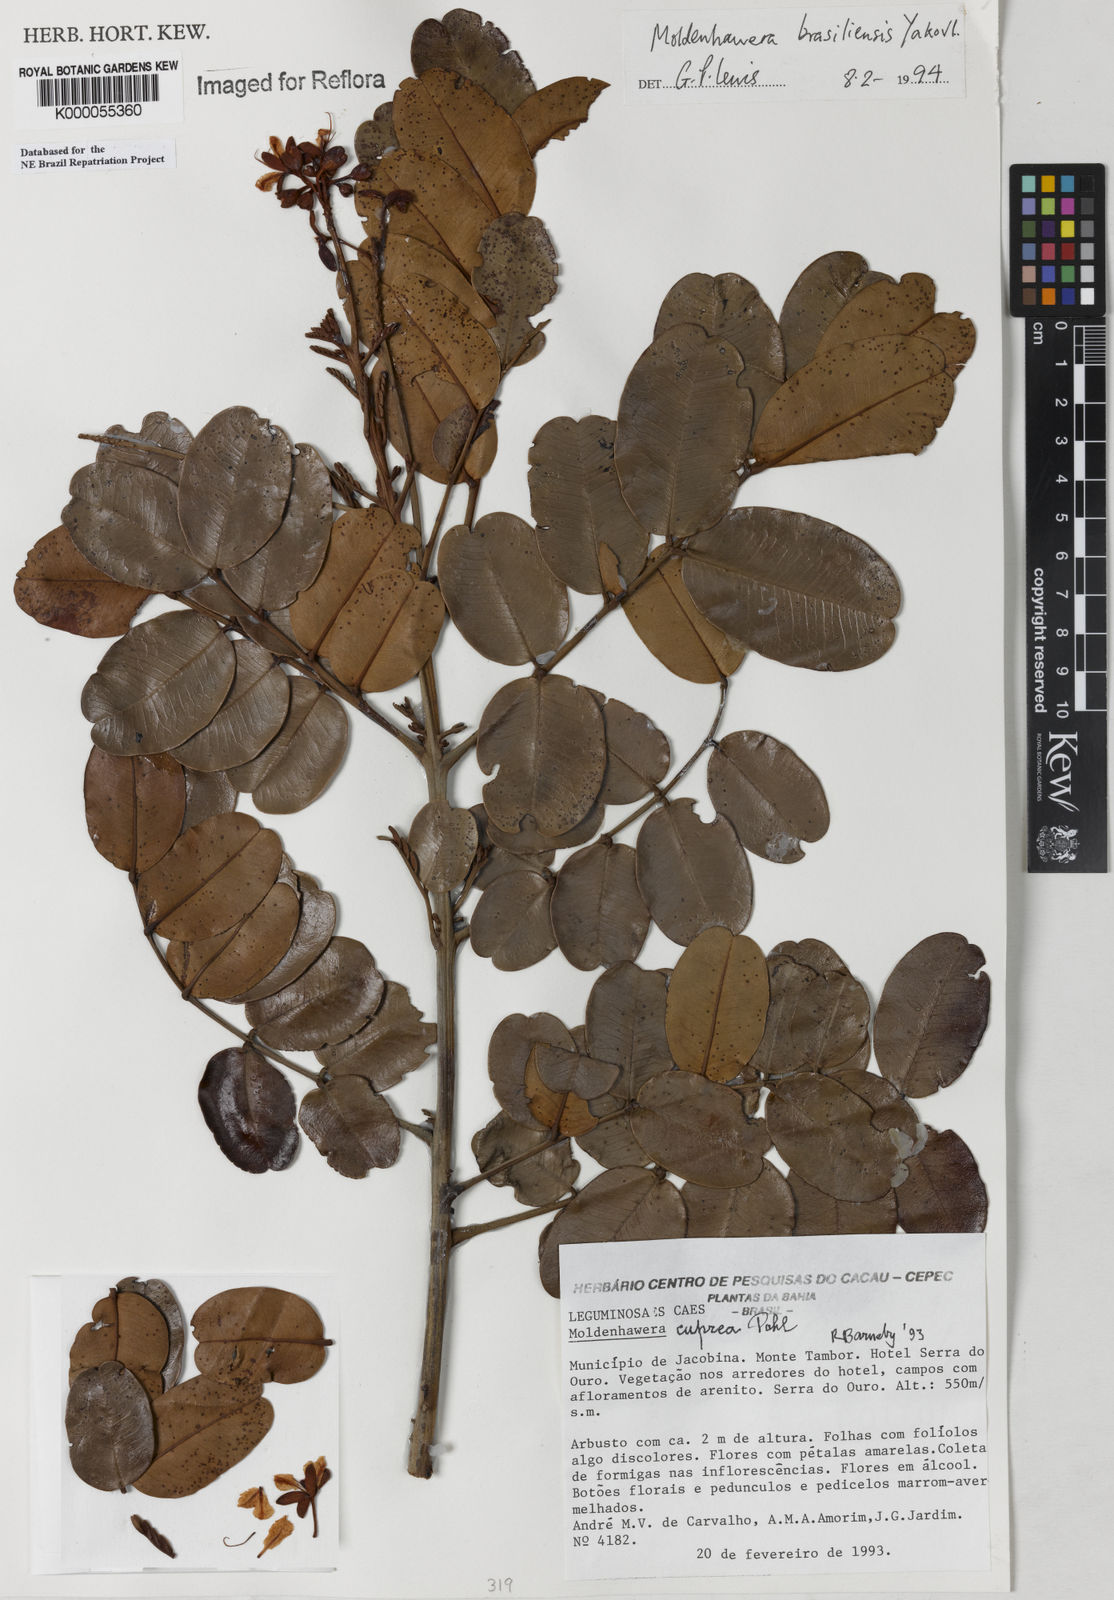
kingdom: Plantae
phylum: Tracheophyta
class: Magnoliopsida
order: Fabales
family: Fabaceae
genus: Moldenhawera
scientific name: Moldenhawera brasiliensis
